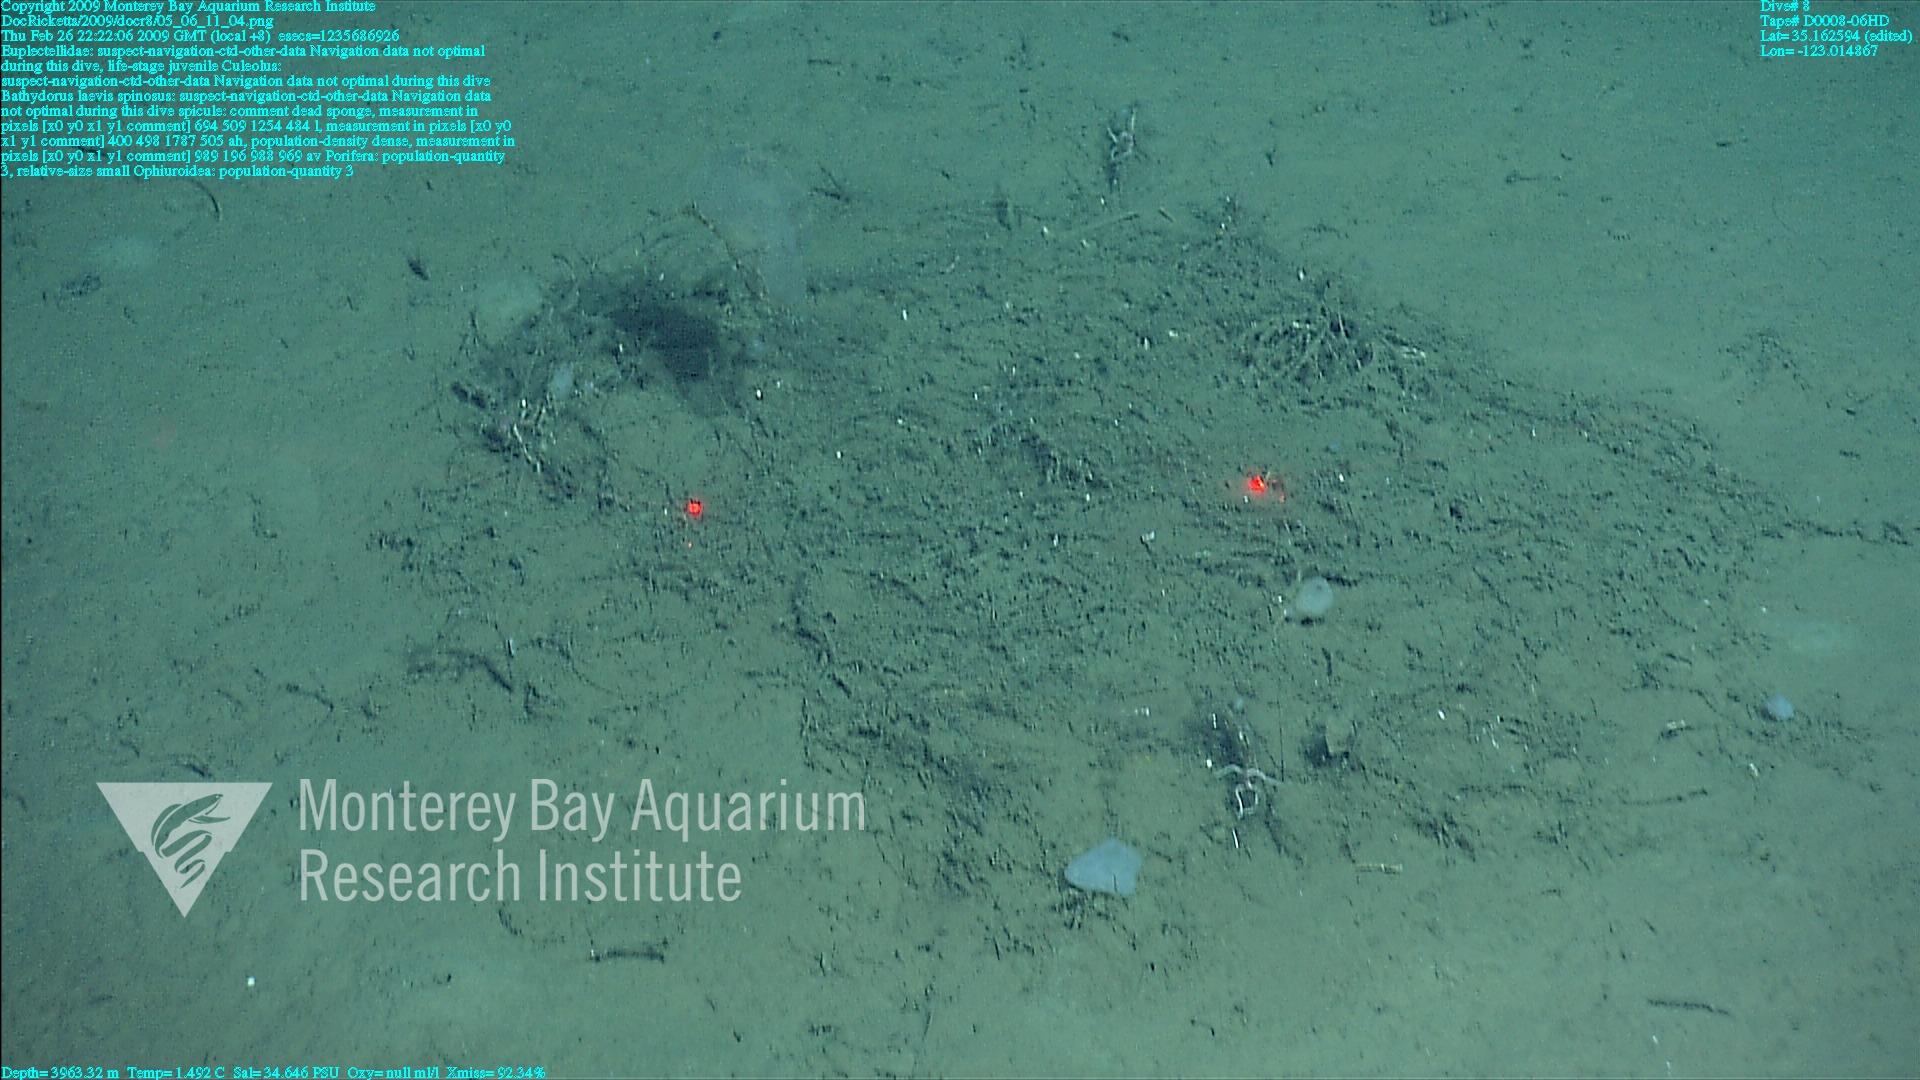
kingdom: Animalia
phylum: Porifera
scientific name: Porifera
